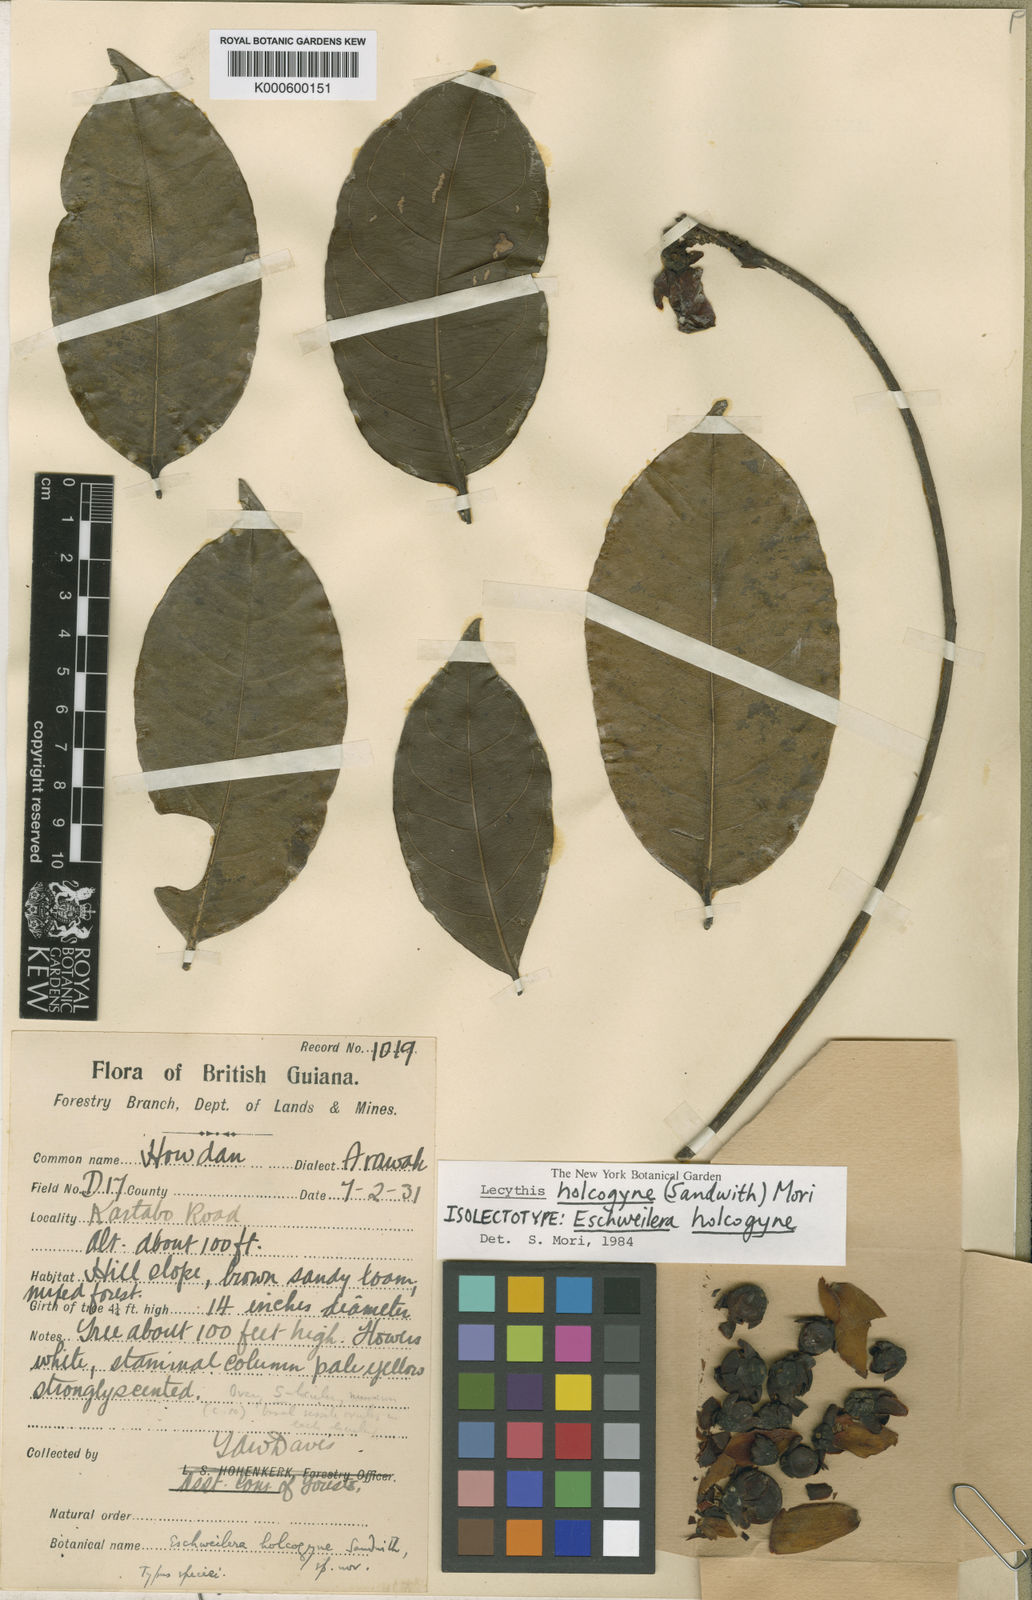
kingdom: Plantae
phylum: Tracheophyta
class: Magnoliopsida
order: Ericales
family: Lecythidaceae
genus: Lecythis
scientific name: Lecythis holcogyne
